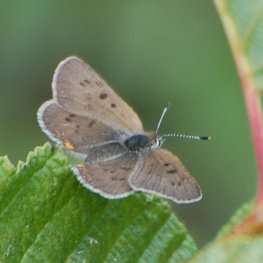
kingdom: Animalia
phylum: Arthropoda
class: Insecta
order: Lepidoptera
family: Sesiidae
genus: Sesia
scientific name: Sesia Lycaena epixanthe
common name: Bog Copper
